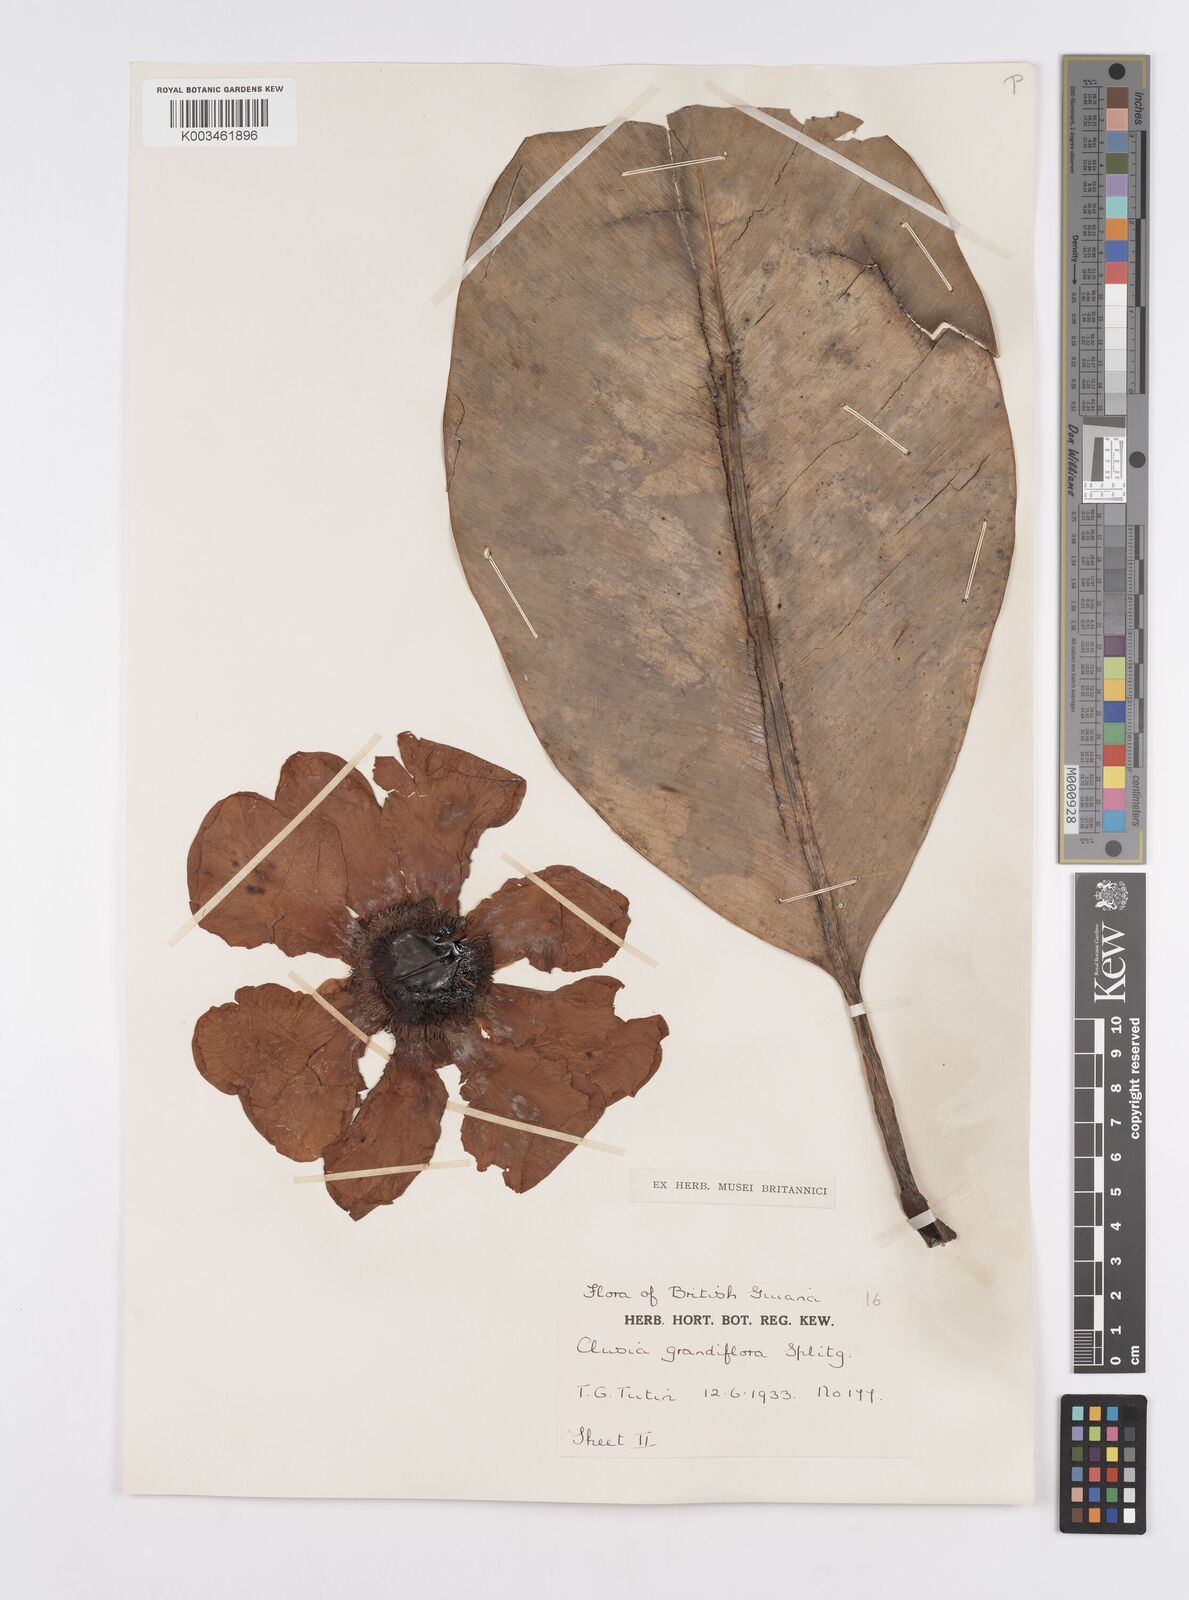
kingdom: Plantae
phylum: Tracheophyta
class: Magnoliopsida
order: Malpighiales
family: Clusiaceae
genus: Clusia
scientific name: Clusia grandiflora
